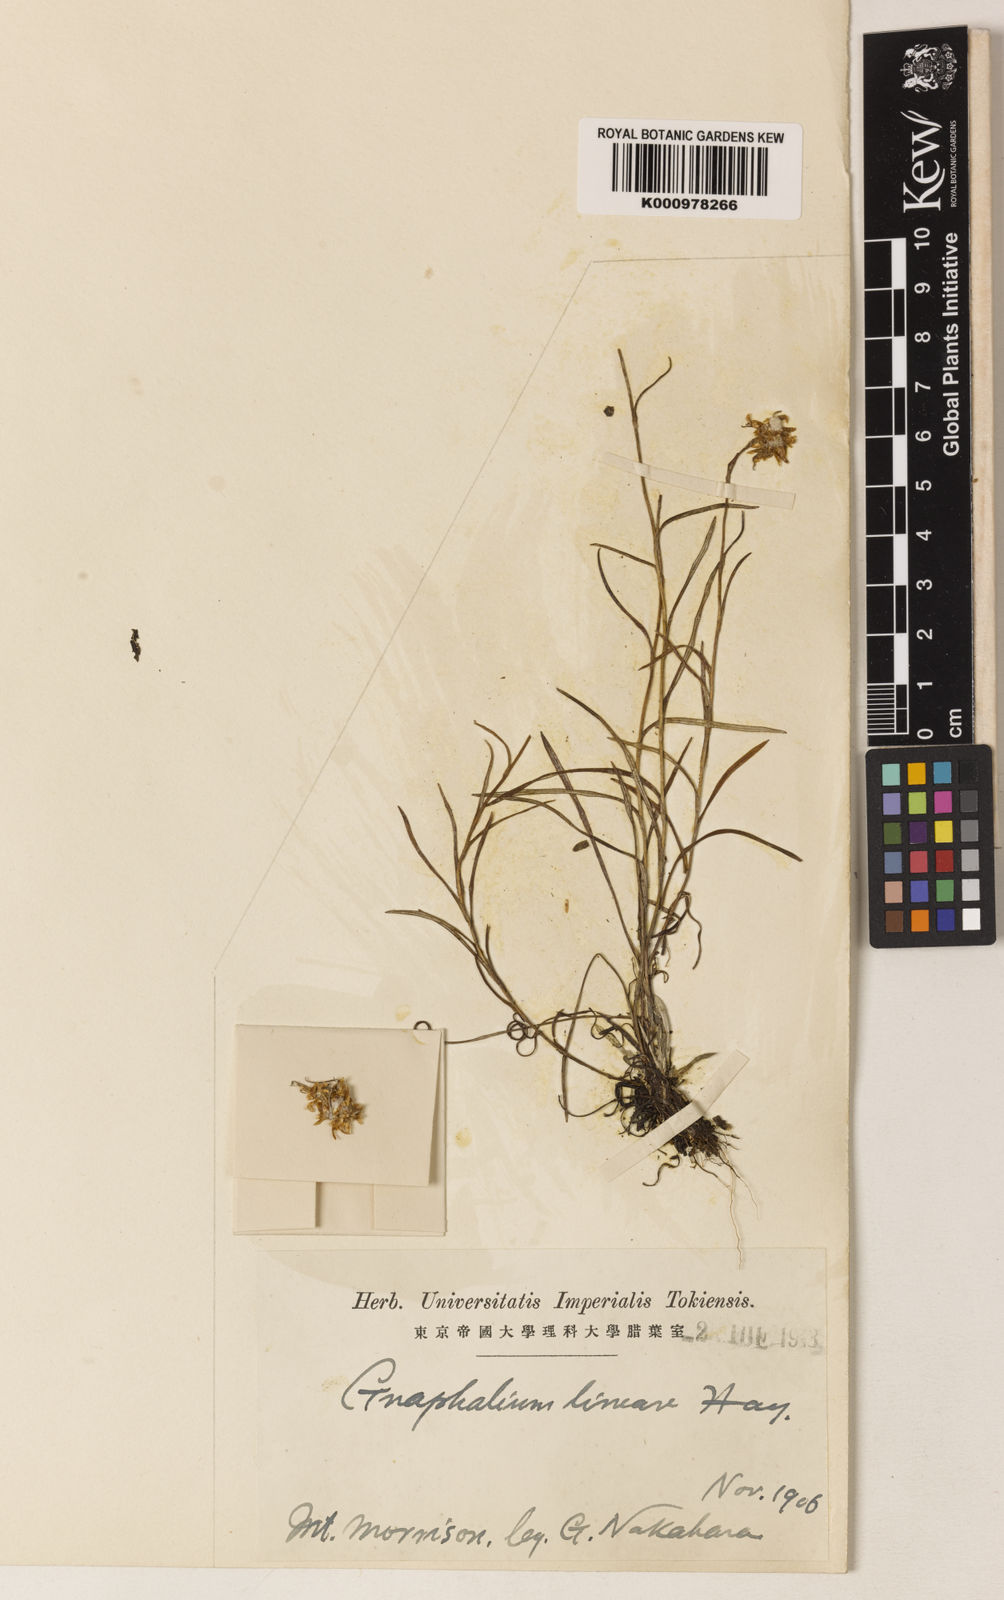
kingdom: Plantae
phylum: Tracheophyta
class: Magnoliopsida
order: Asterales
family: Asteraceae
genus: Helichrysum
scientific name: Helichrysum lineare
